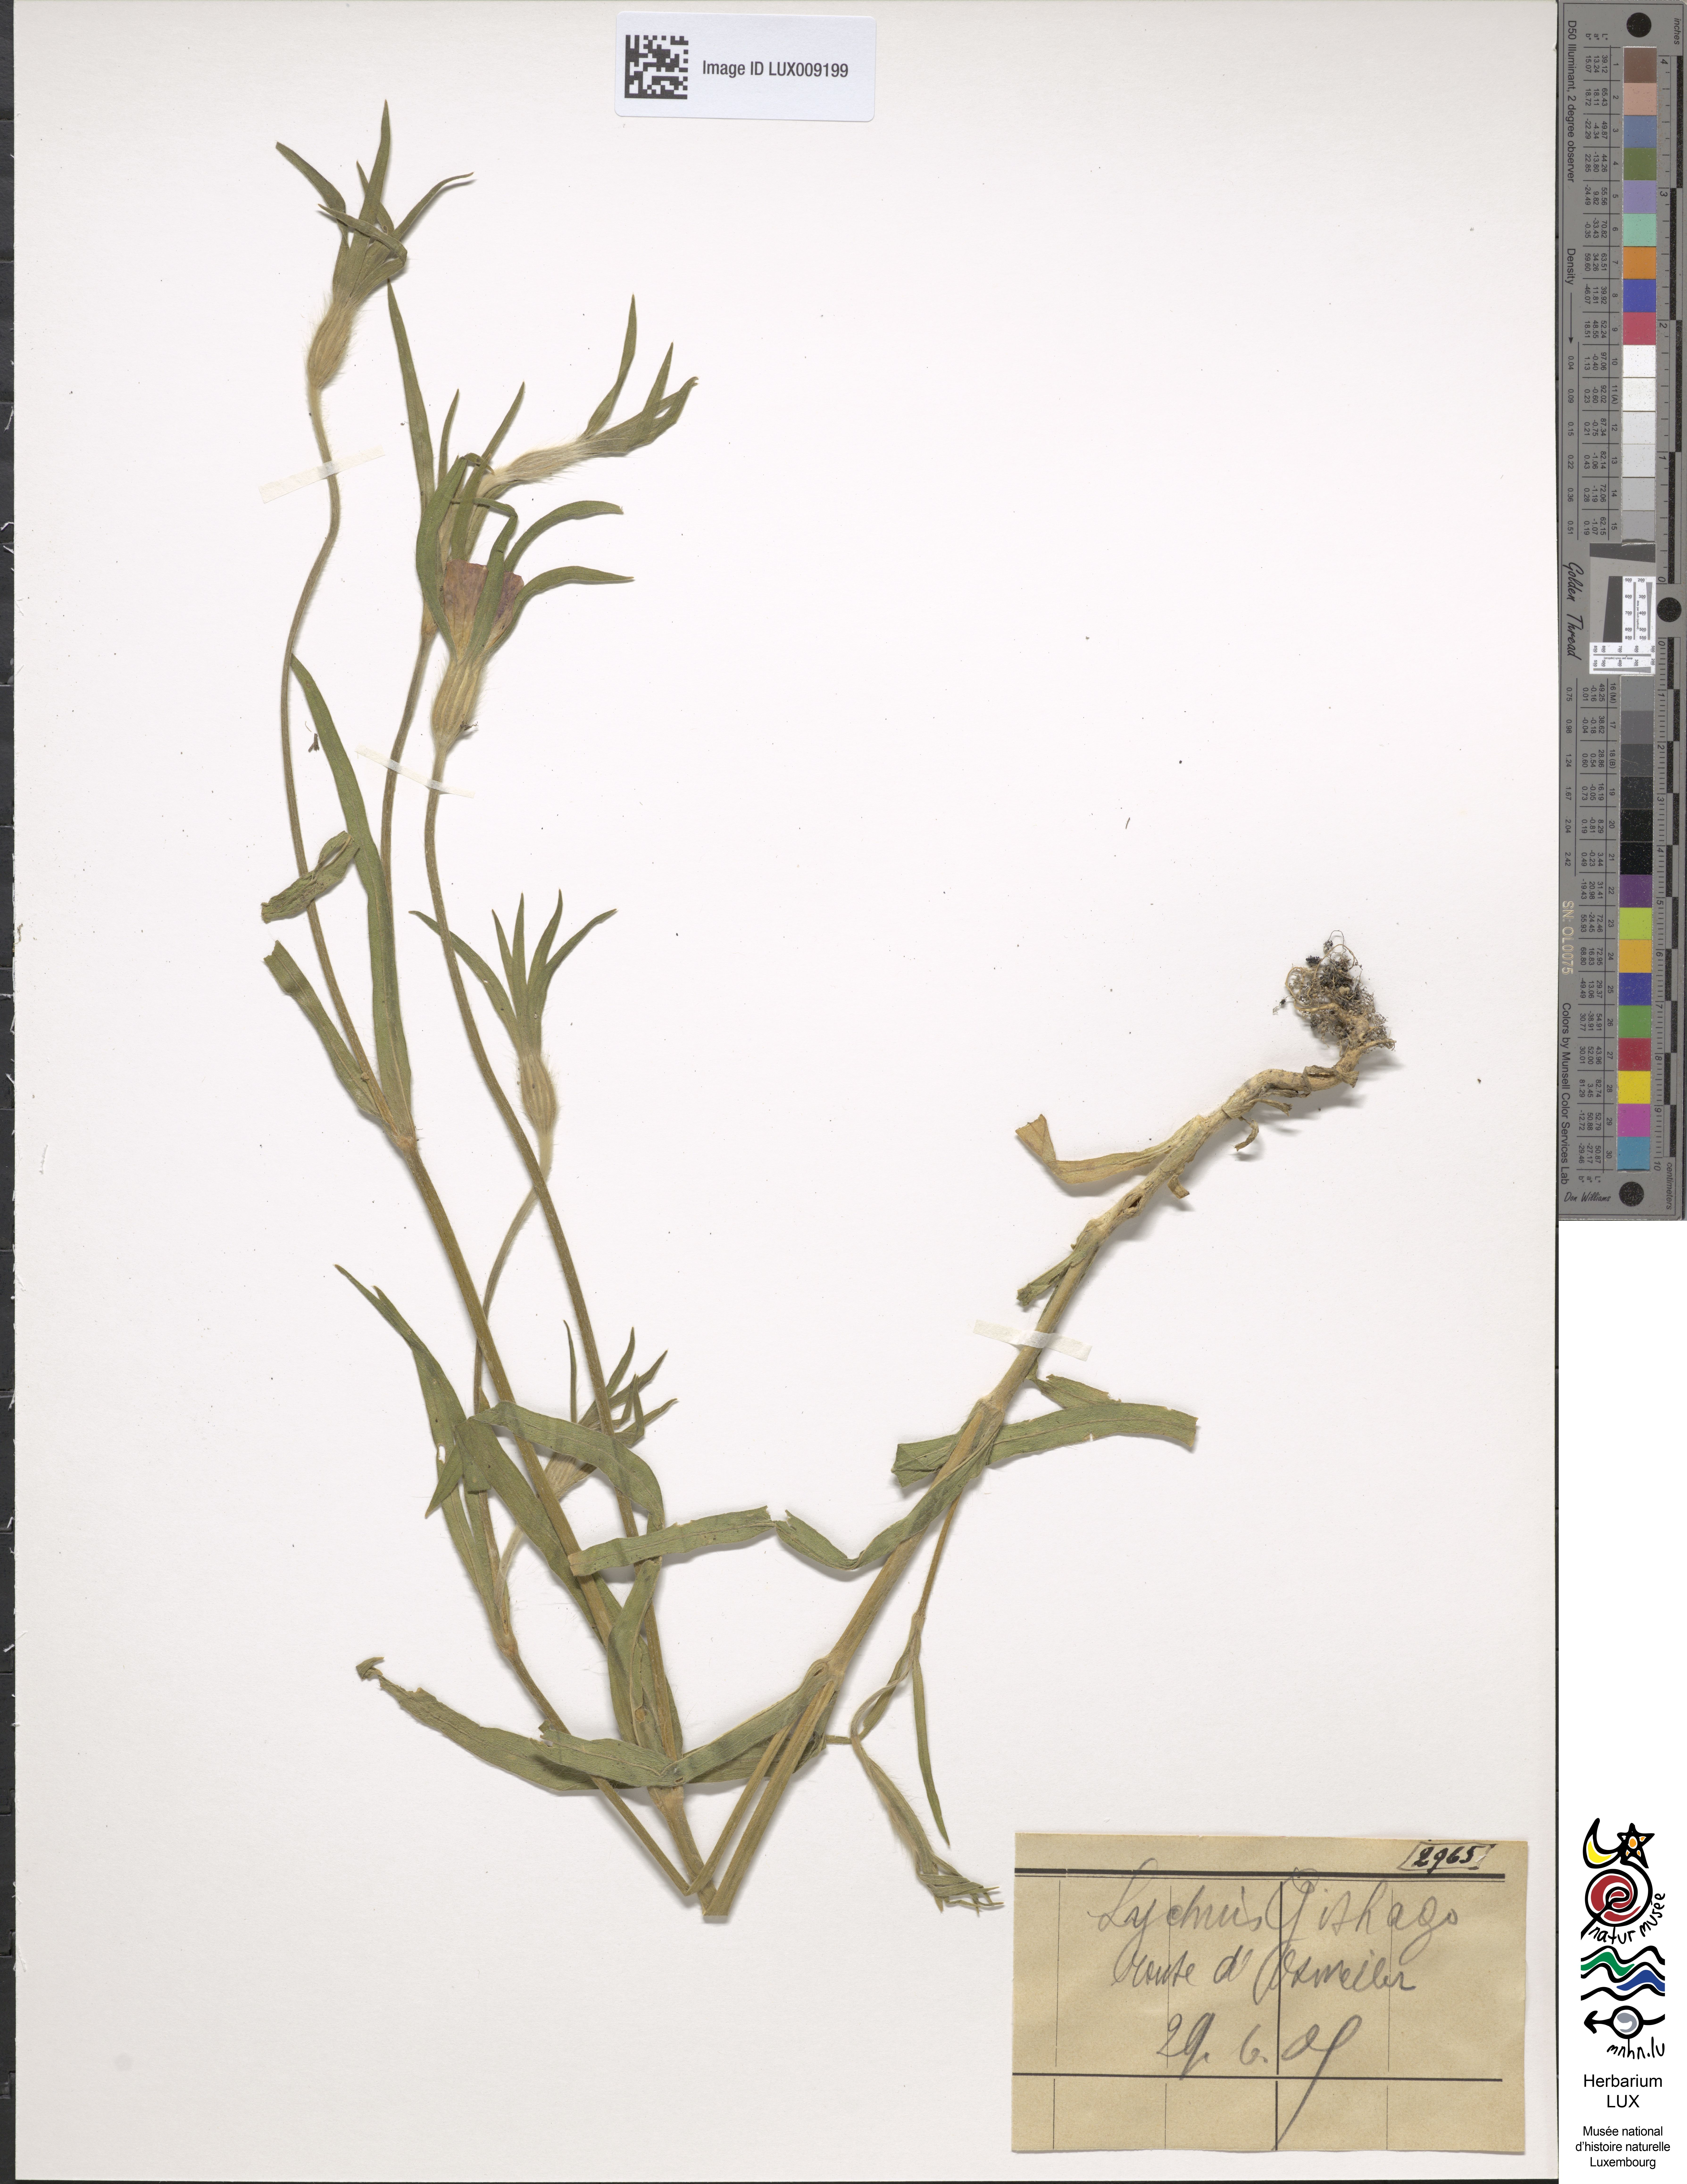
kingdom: Plantae
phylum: Tracheophyta
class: Magnoliopsida
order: Caryophyllales
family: Caryophyllaceae
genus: Agrostemma
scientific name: Agrostemma githago
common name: Common corncockle
